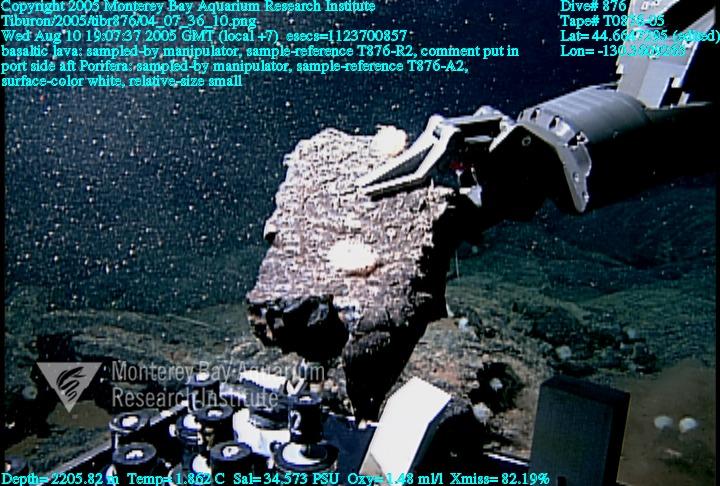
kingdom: Animalia
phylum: Porifera
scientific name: Porifera
